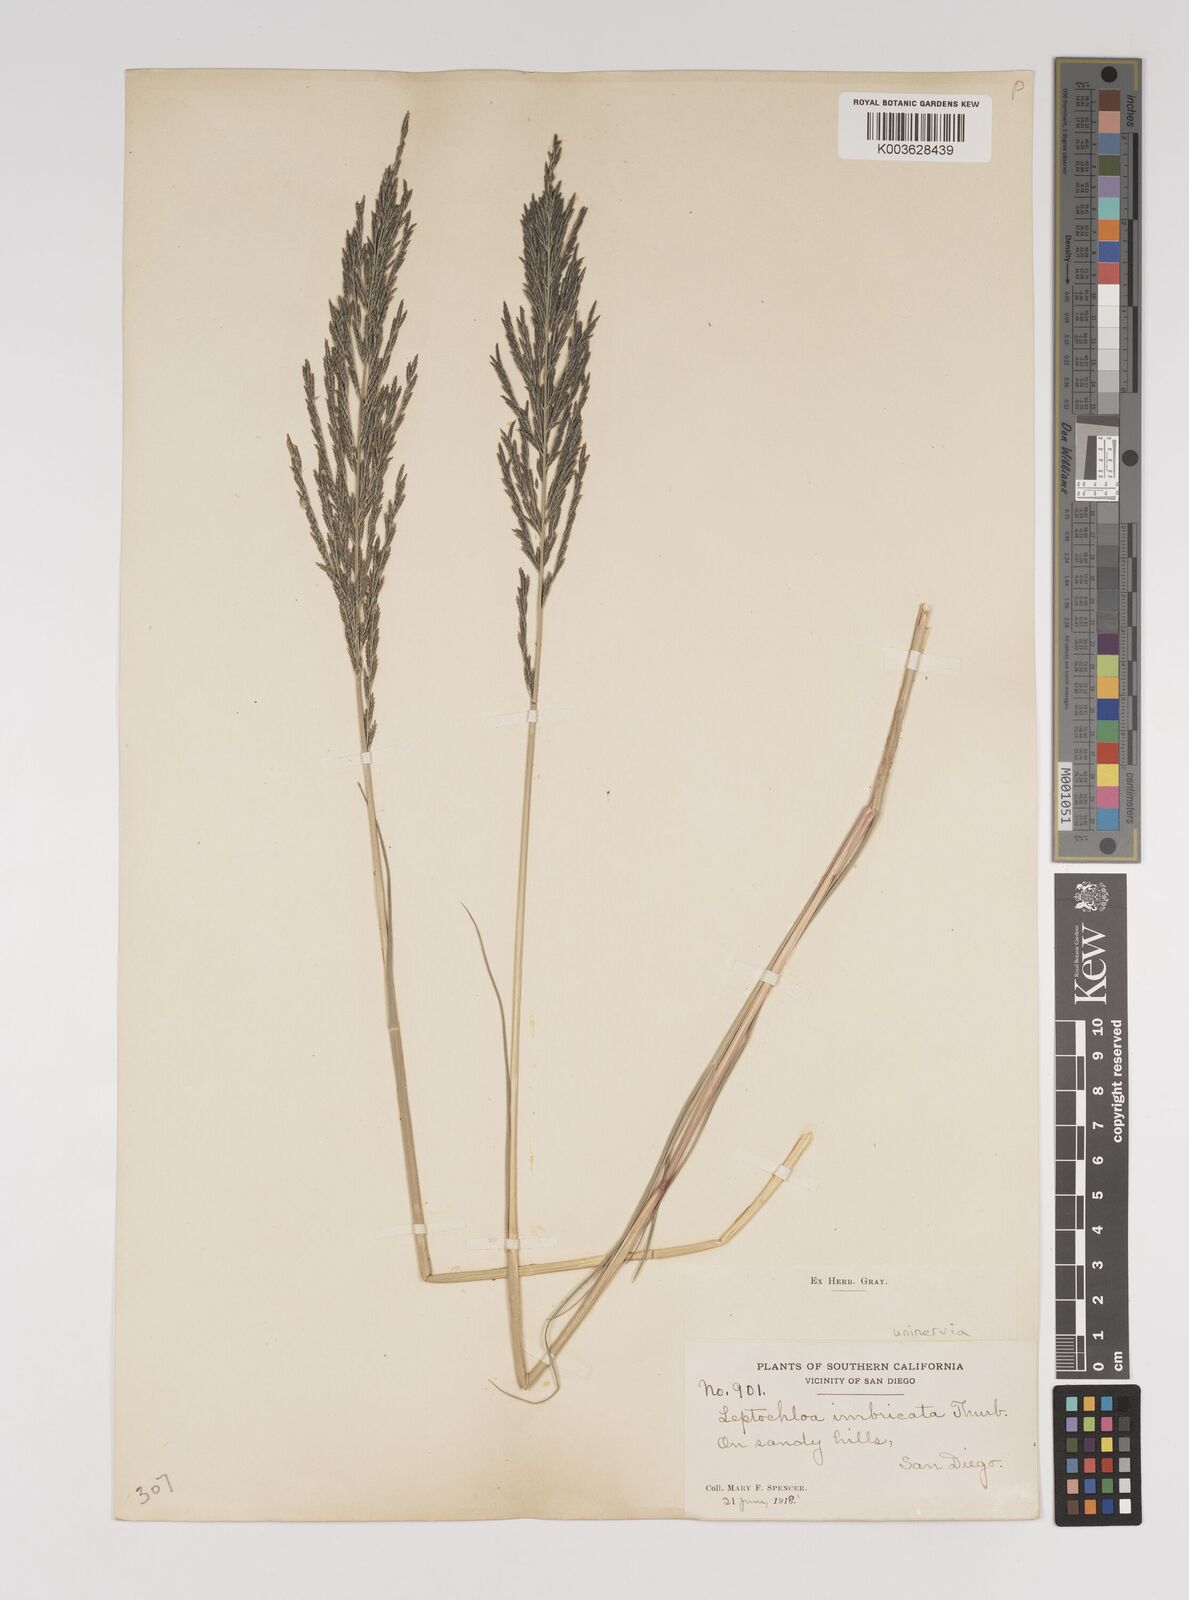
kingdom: Plantae
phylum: Tracheophyta
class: Liliopsida
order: Poales
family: Poaceae
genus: Diplachne
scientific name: Diplachne fusca
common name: Brown beetle grass
